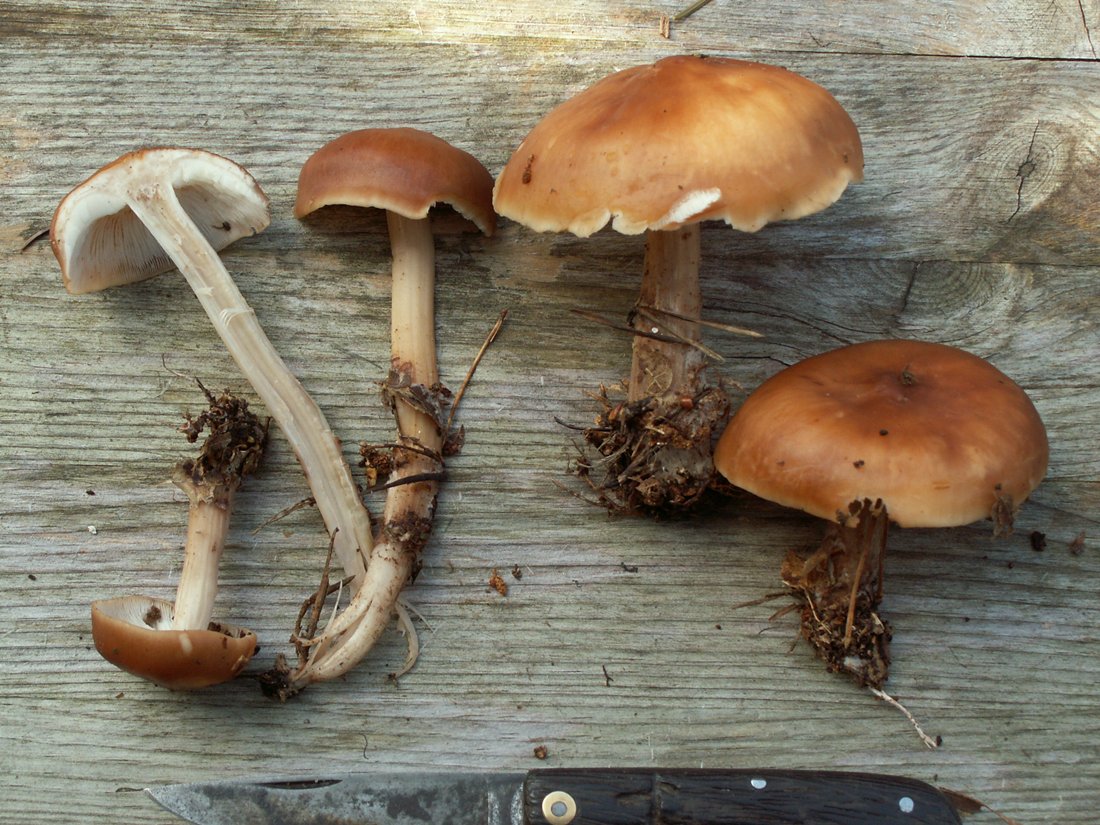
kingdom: Fungi
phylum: Basidiomycota
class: Agaricomycetes
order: Agaricales
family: Omphalotaceae
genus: Rhodocollybia
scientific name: Rhodocollybia prolixa
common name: furestokket fladhat
